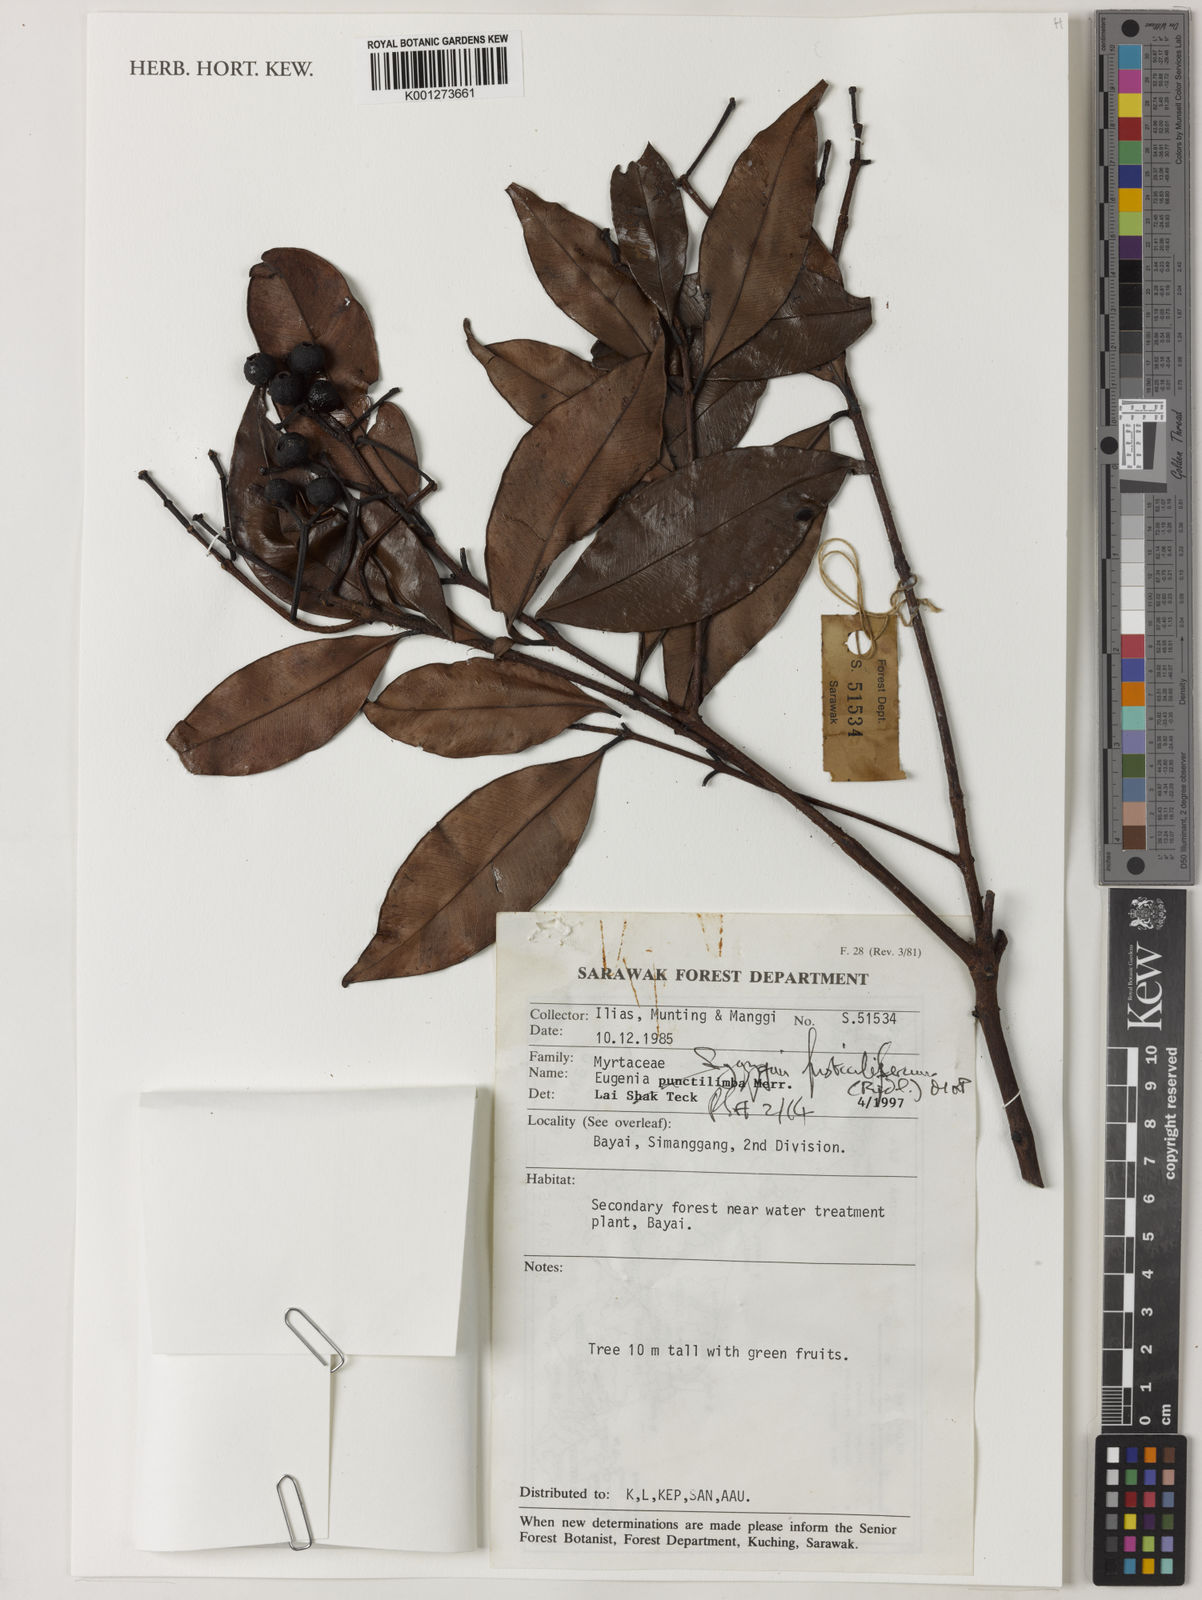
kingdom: Plantae
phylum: Tracheophyta
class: Magnoliopsida
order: Myrtales
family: Myrtaceae
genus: Syzygium
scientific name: Syzygium fusticuliferum
